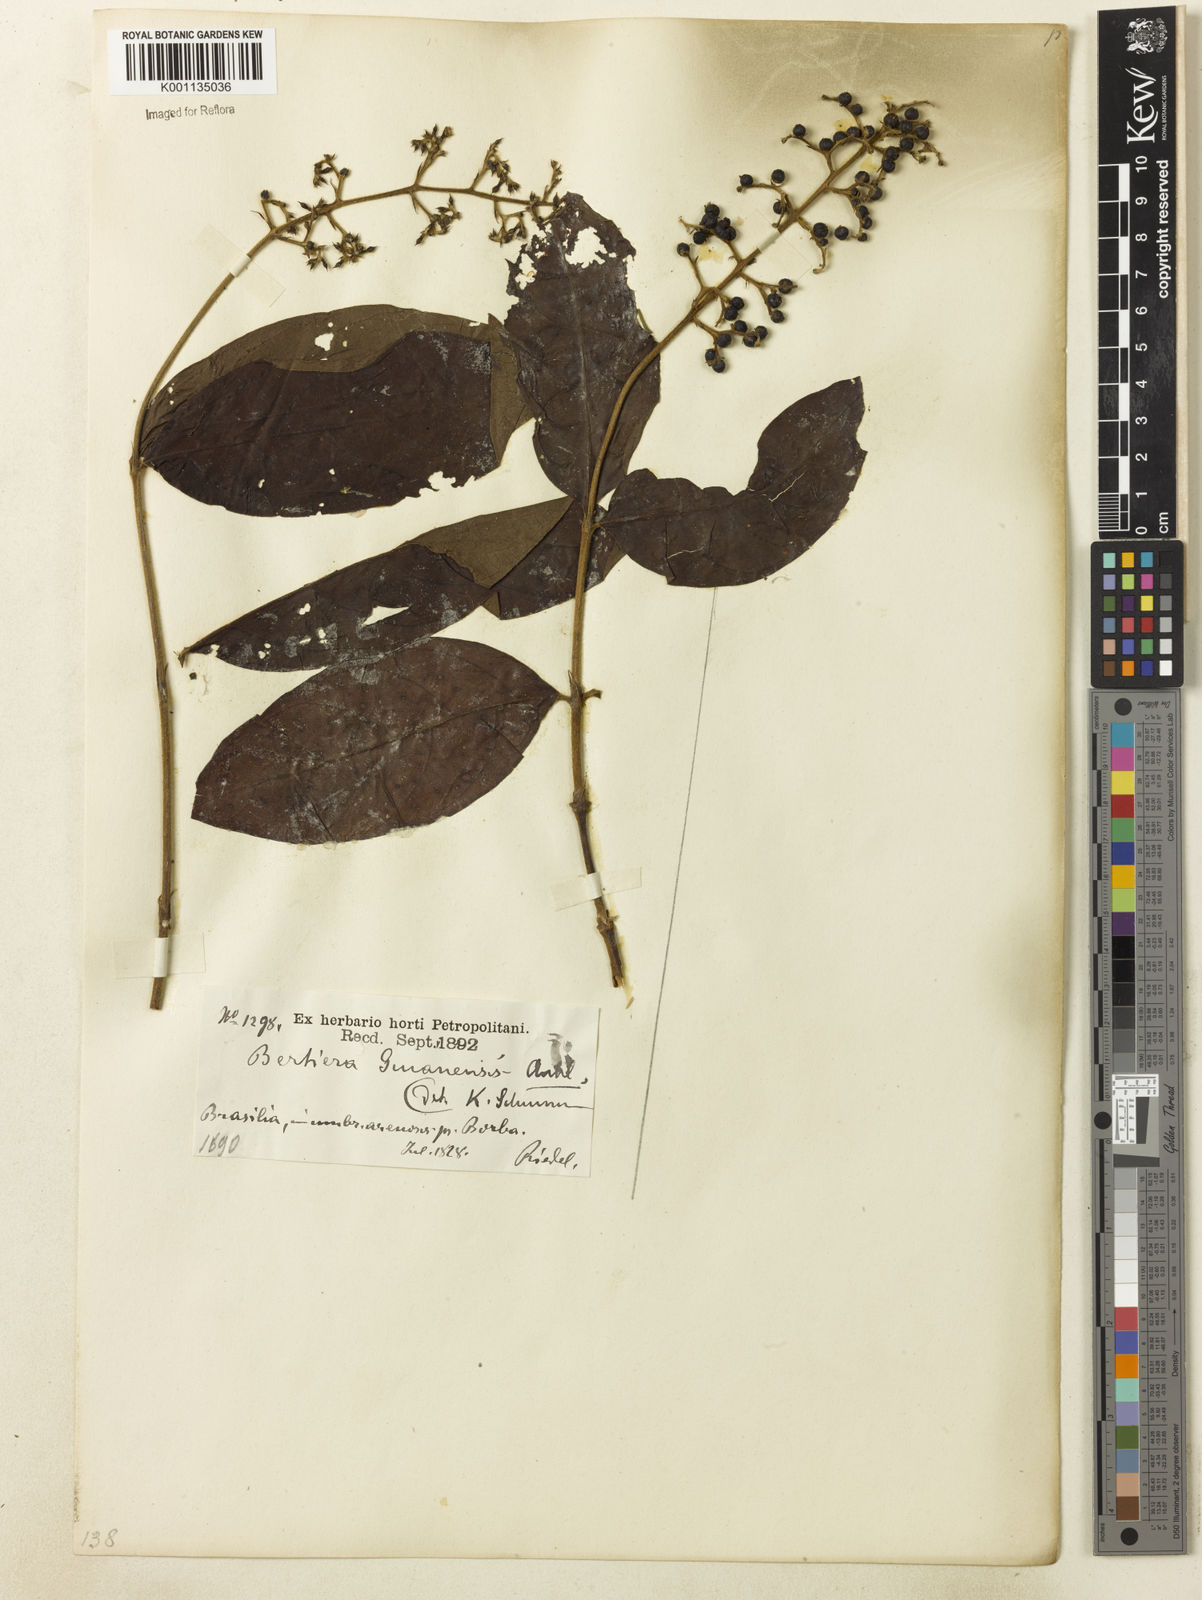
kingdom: Plantae
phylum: Tracheophyta
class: Magnoliopsida
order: Gentianales
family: Rubiaceae
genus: Bertiera
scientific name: Bertiera guianensis
